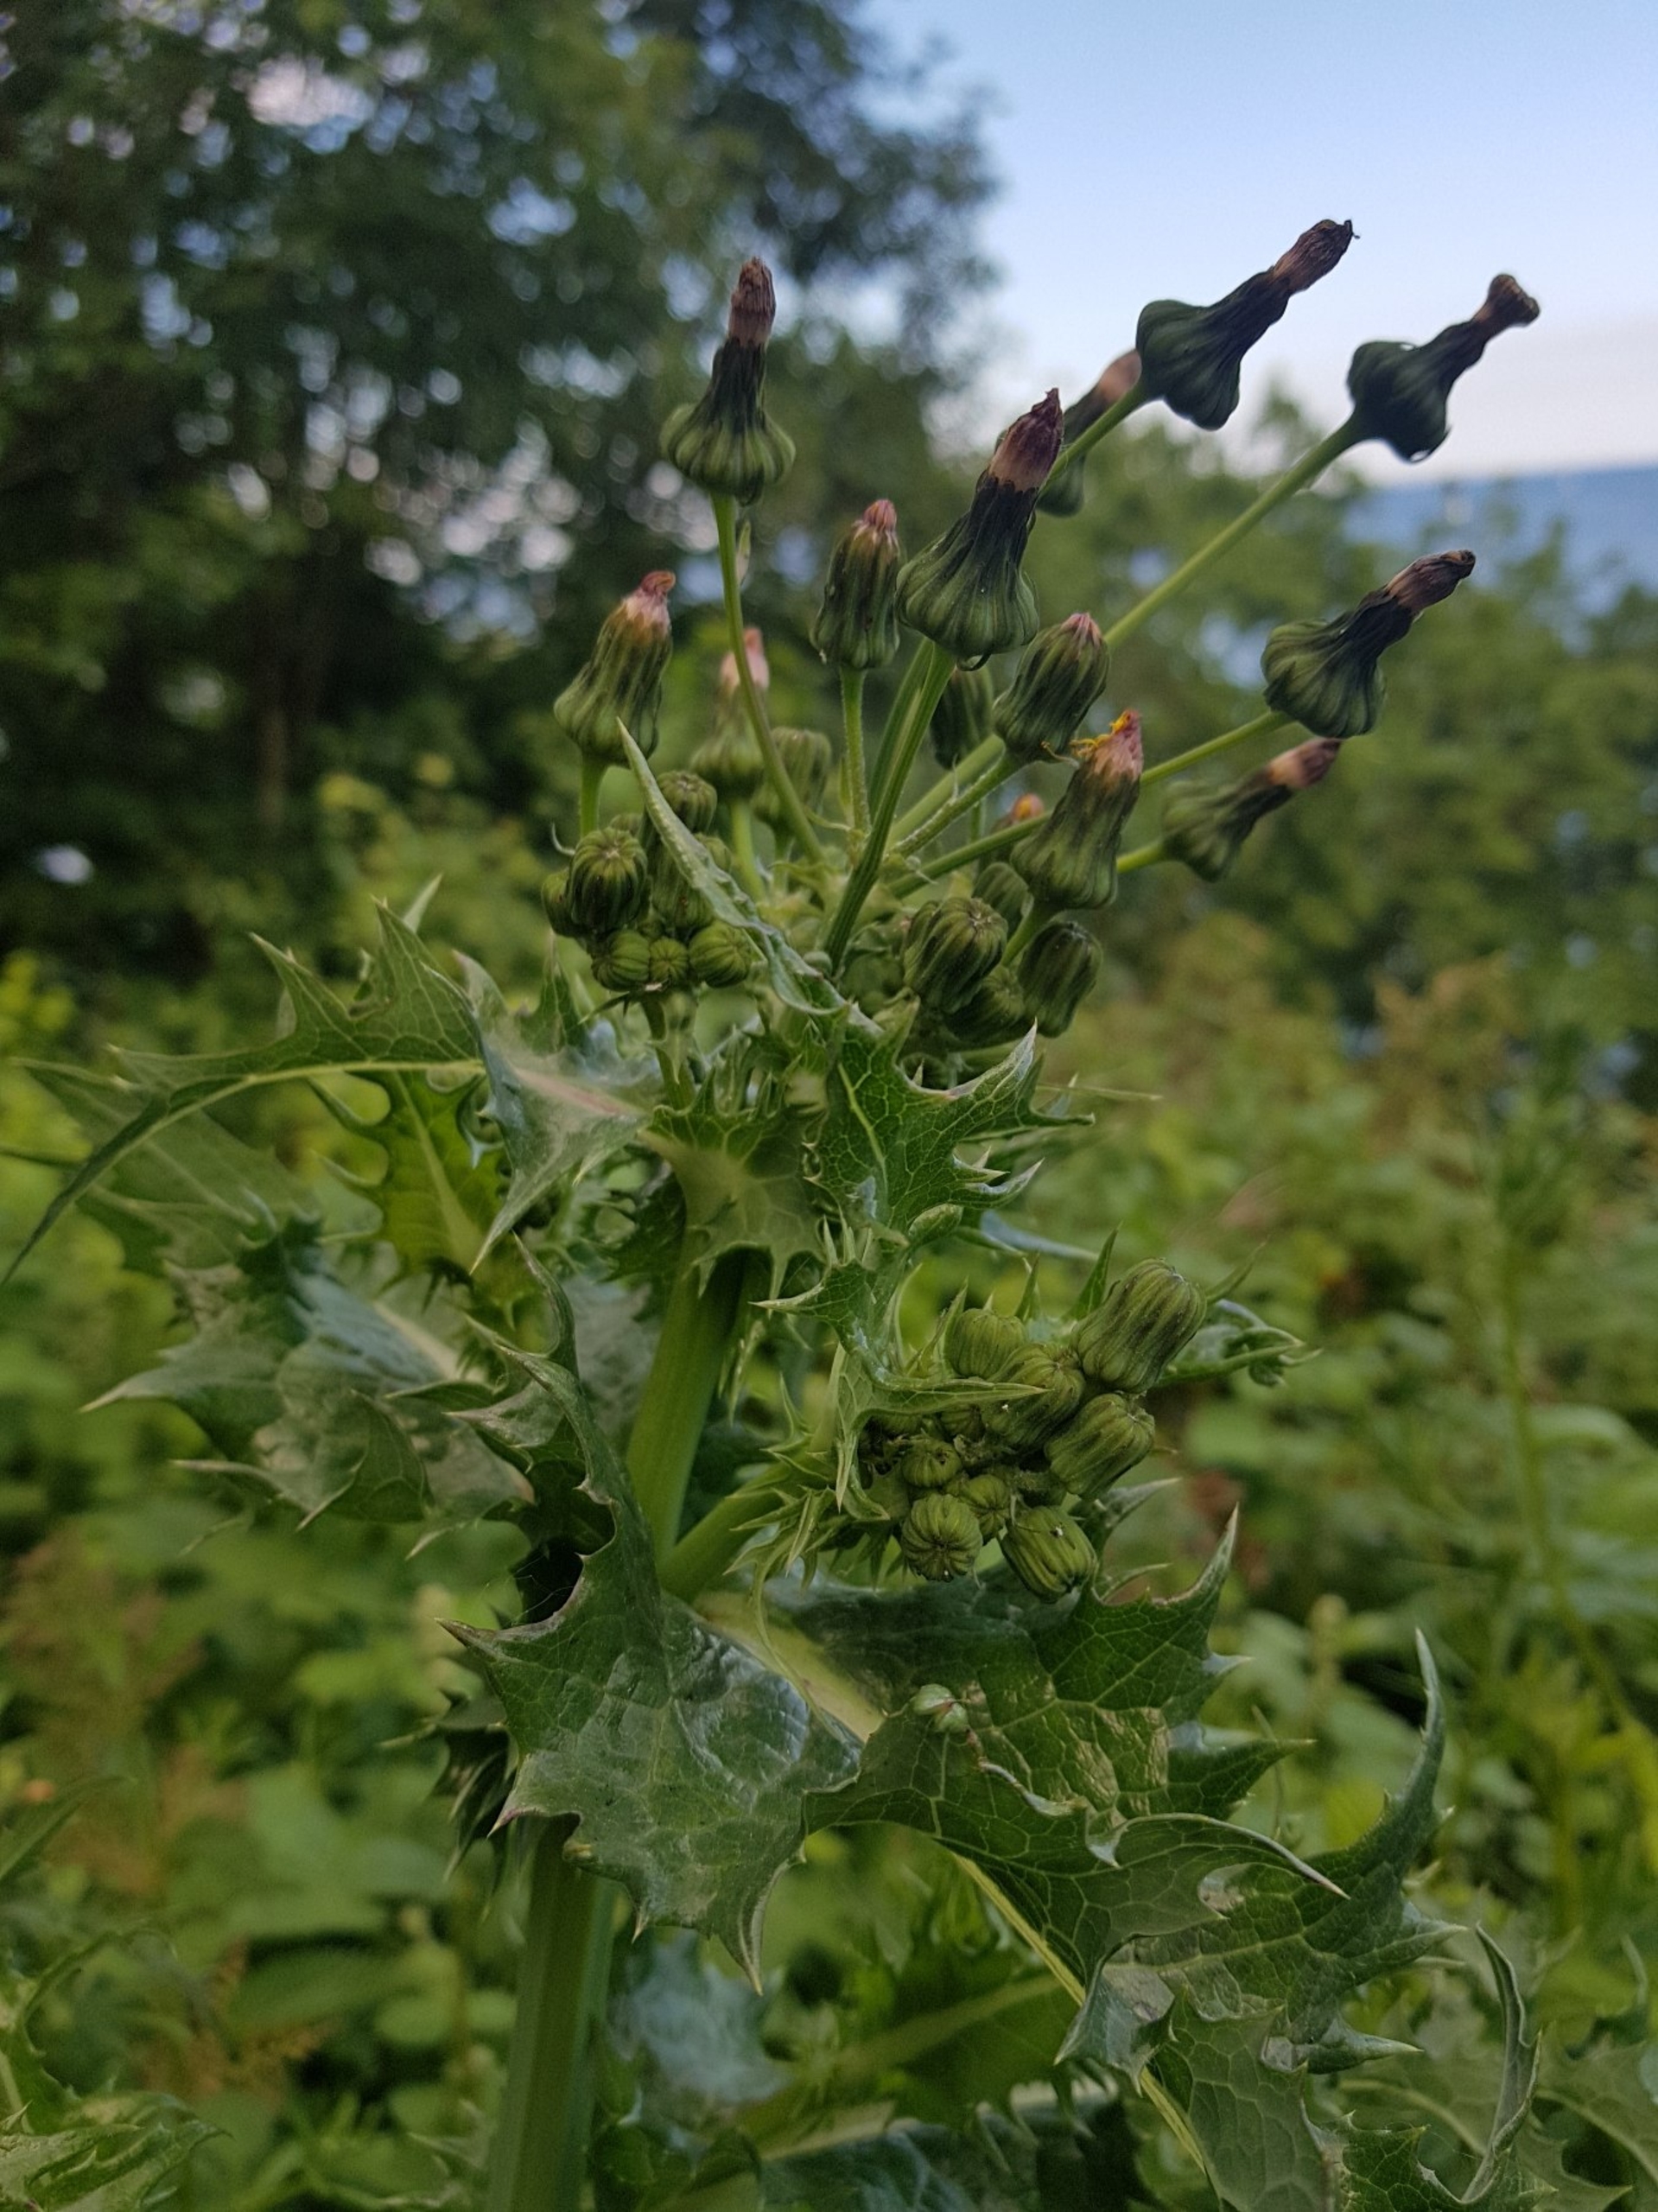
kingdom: Plantae
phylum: Tracheophyta
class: Magnoliopsida
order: Asterales
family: Asteraceae
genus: Sonchus
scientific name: Sonchus asper
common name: Ru svinemælk
